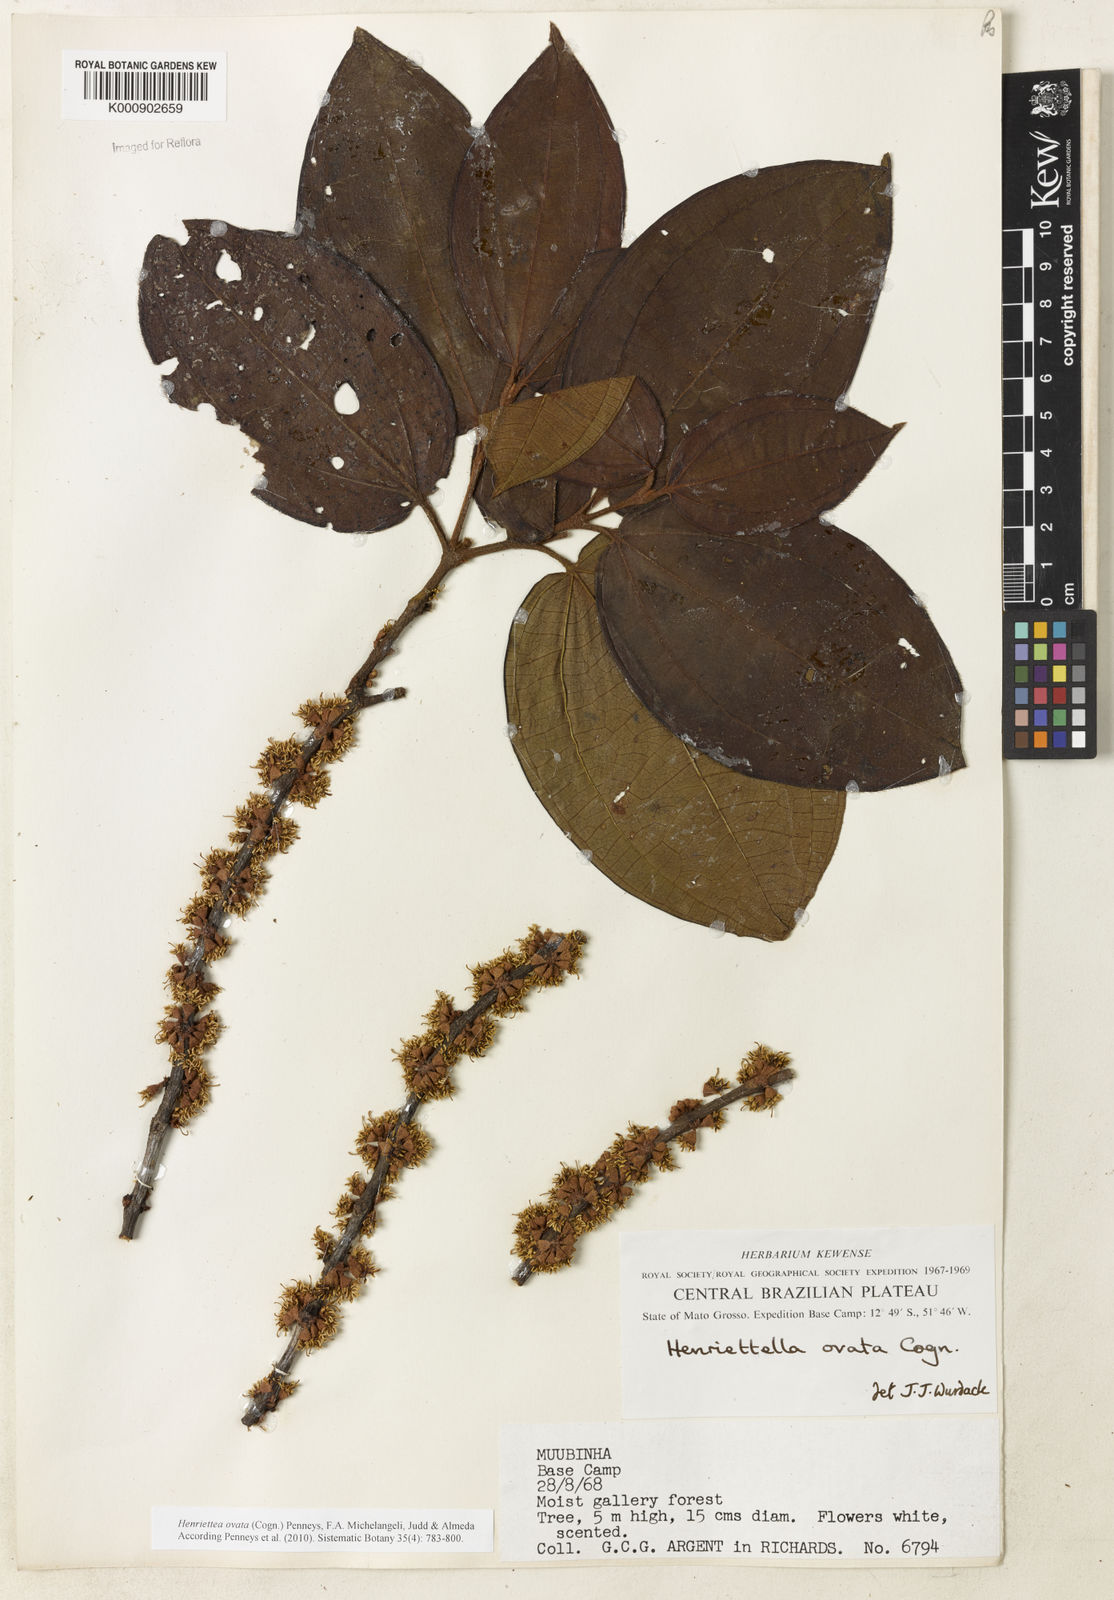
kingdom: Plantae
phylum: Tracheophyta
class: Magnoliopsida
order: Myrtales
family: Melastomataceae
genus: Henriettea
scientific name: Henriettea ovata
